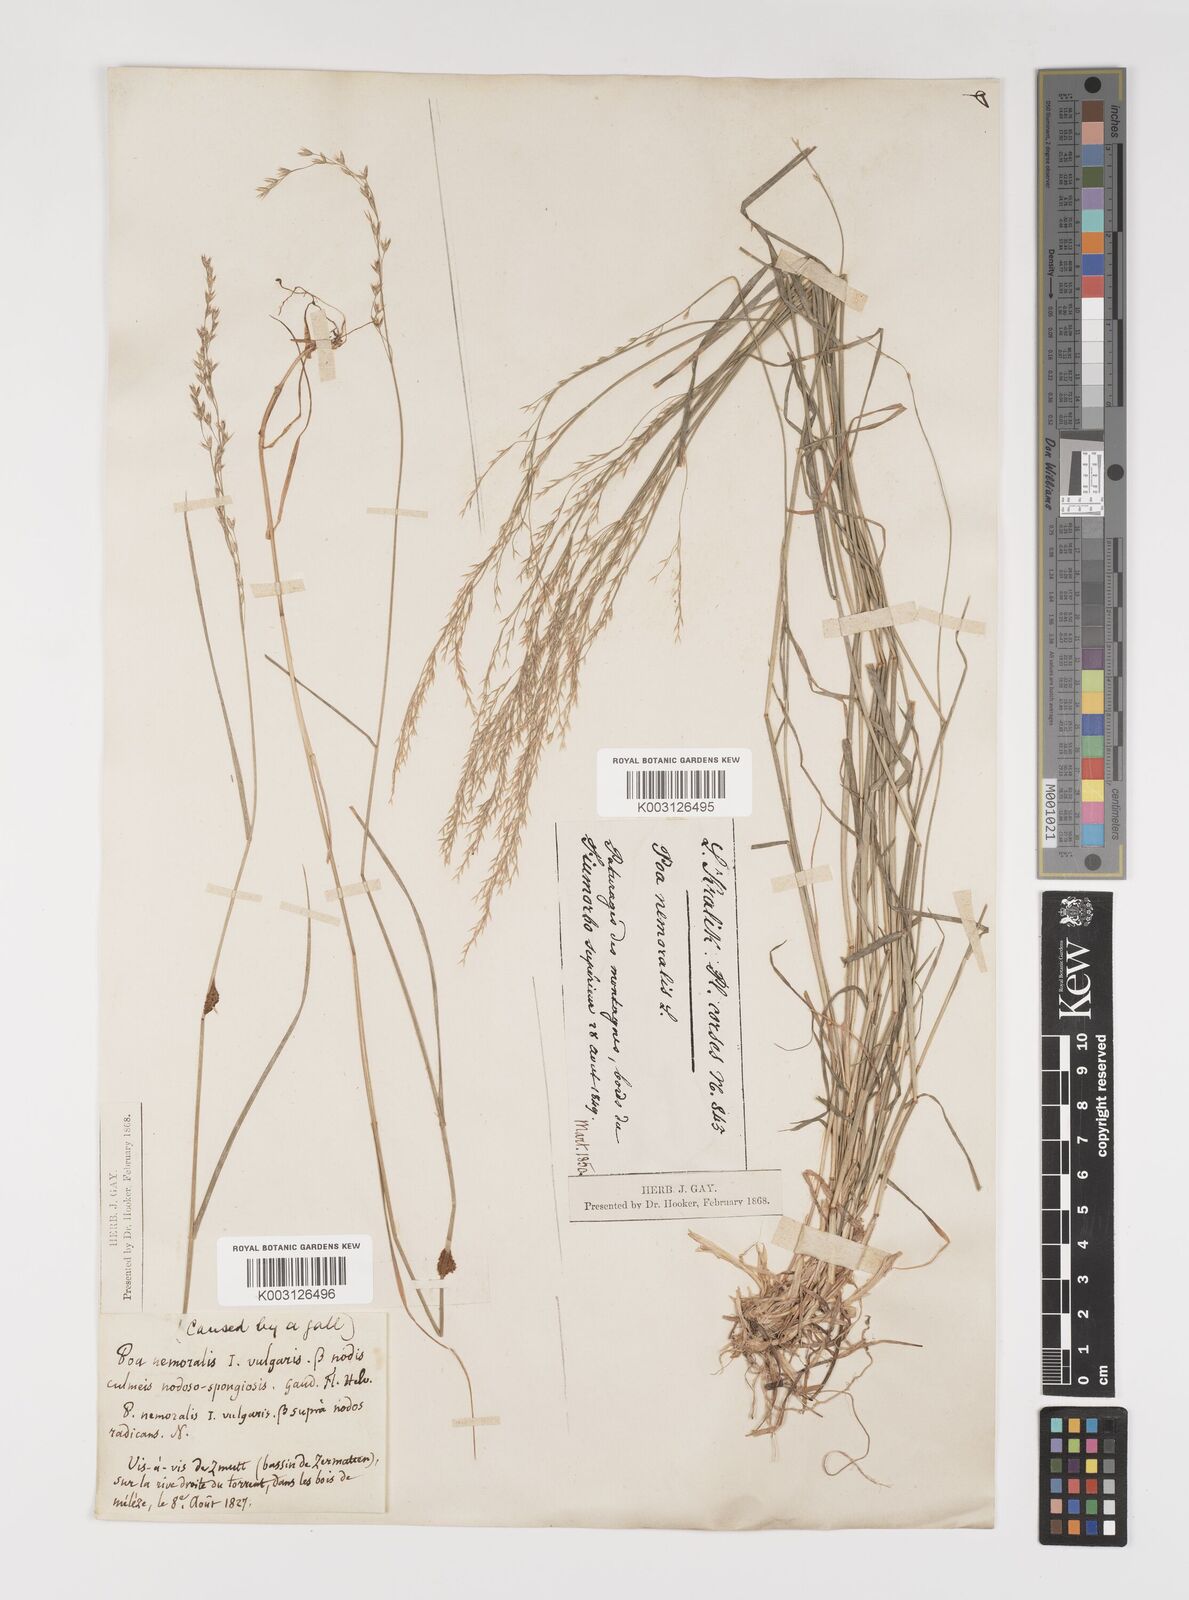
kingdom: Plantae
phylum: Tracheophyta
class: Liliopsida
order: Poales
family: Poaceae
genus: Poa
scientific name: Poa nemoralis
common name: Wood bluegrass
